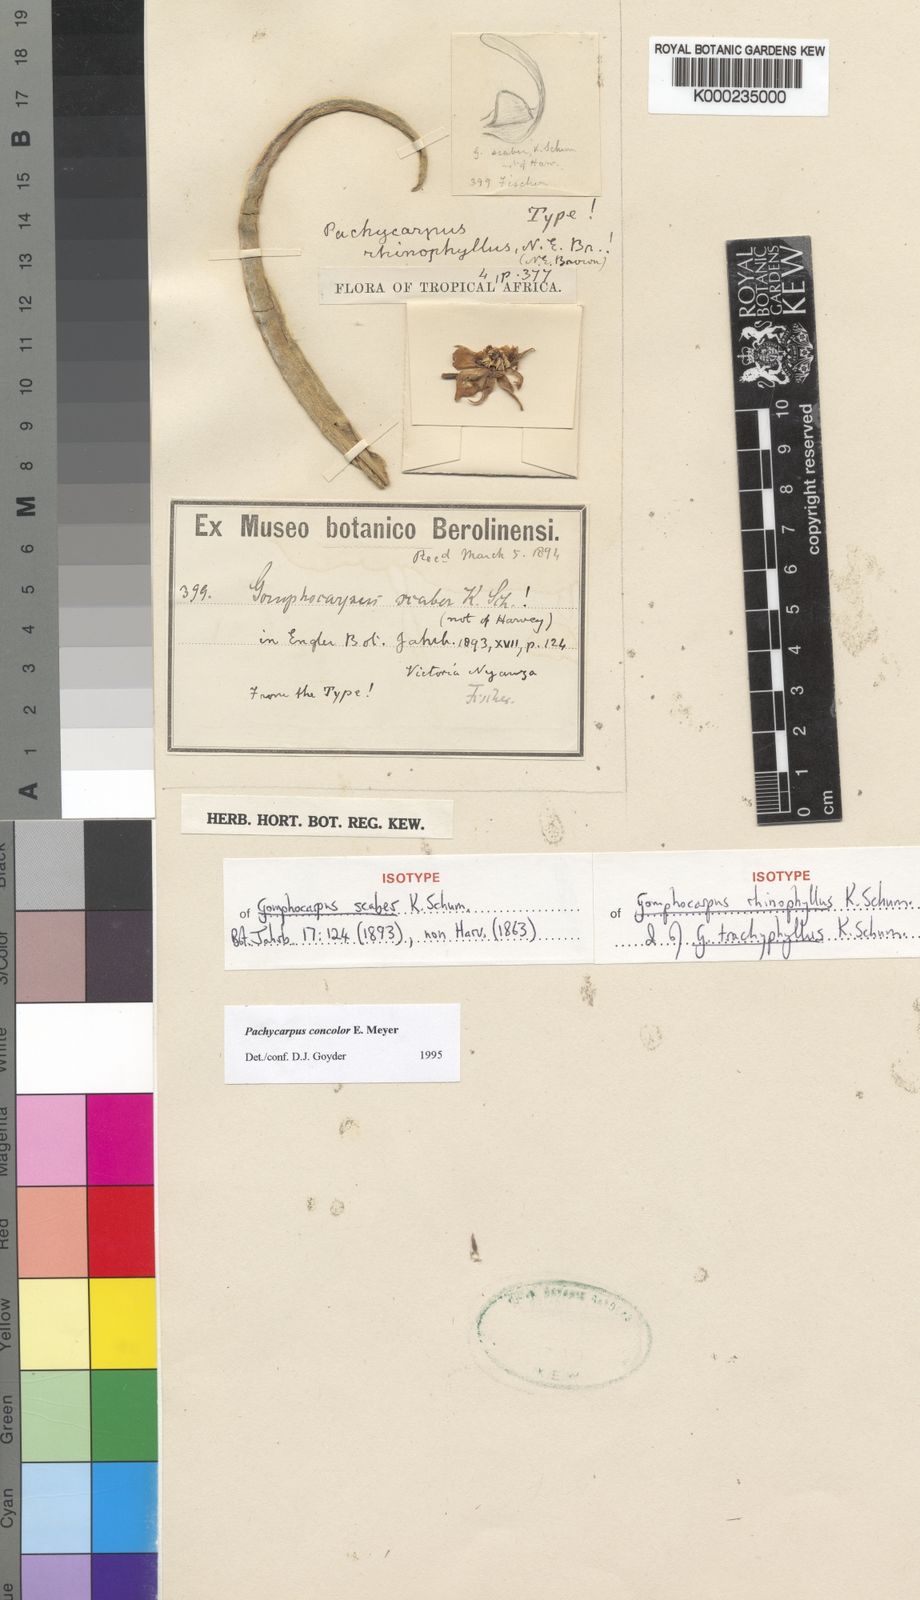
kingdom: Plantae
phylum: Tracheophyta
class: Magnoliopsida
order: Gentianales
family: Apocynaceae
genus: Pachycarpus
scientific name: Pachycarpus concolor
